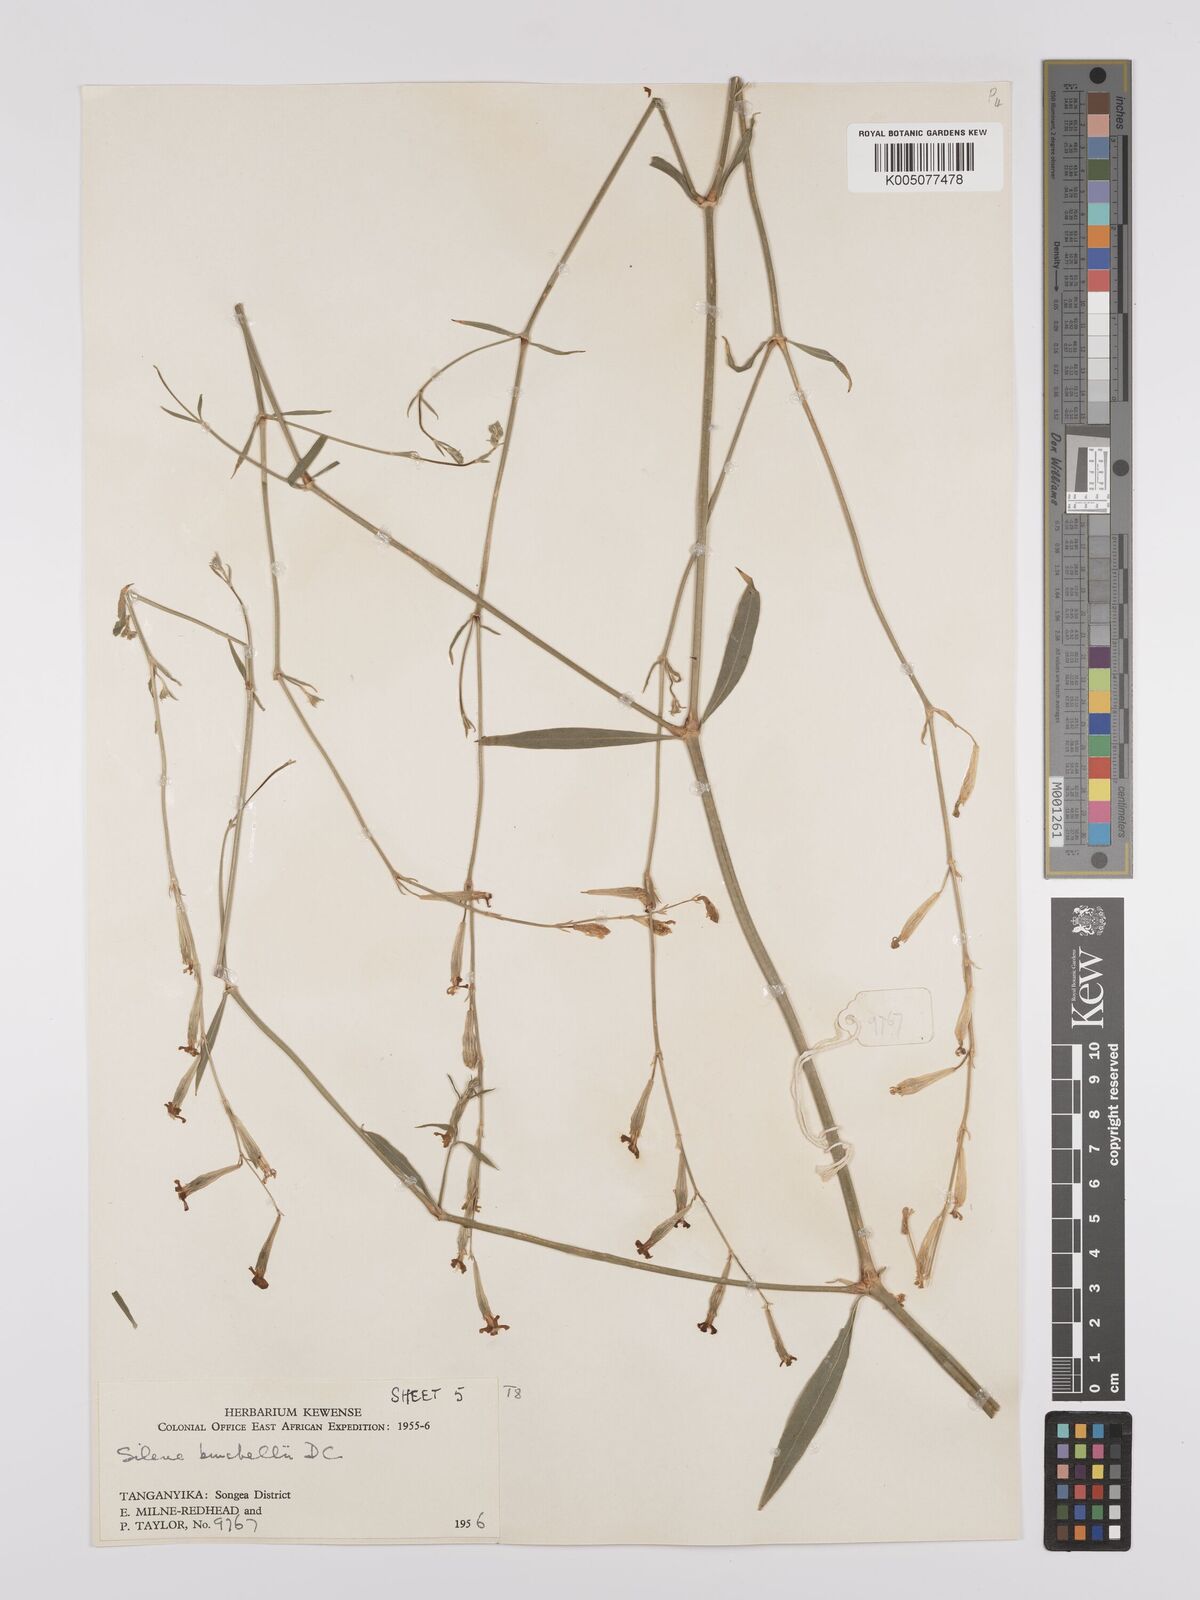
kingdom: Plantae
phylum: Tracheophyta
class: Magnoliopsida
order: Caryophyllales
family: Caryophyllaceae
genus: Silene
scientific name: Silene burchellii
